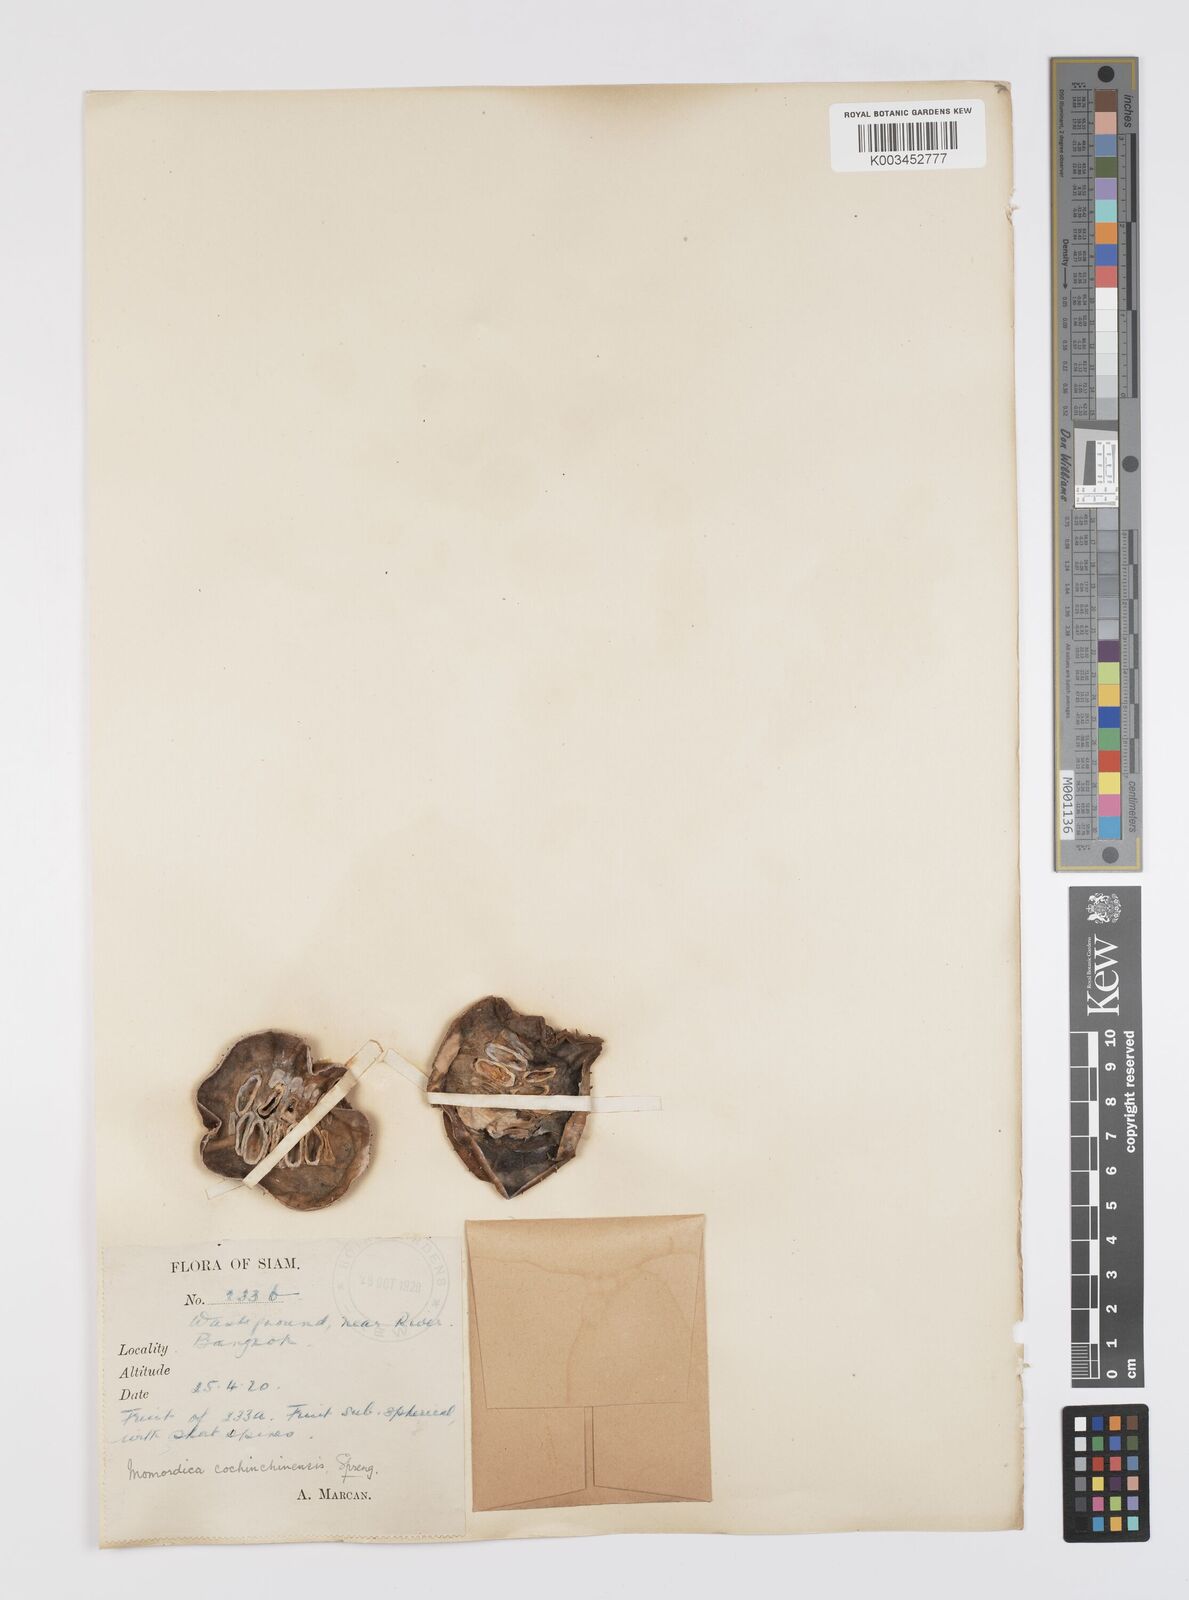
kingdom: Plantae
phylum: Tracheophyta
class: Magnoliopsida
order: Cucurbitales
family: Cucurbitaceae
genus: Momordica
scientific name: Momordica cochinchinensis
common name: Chinese bitter-cucumber
